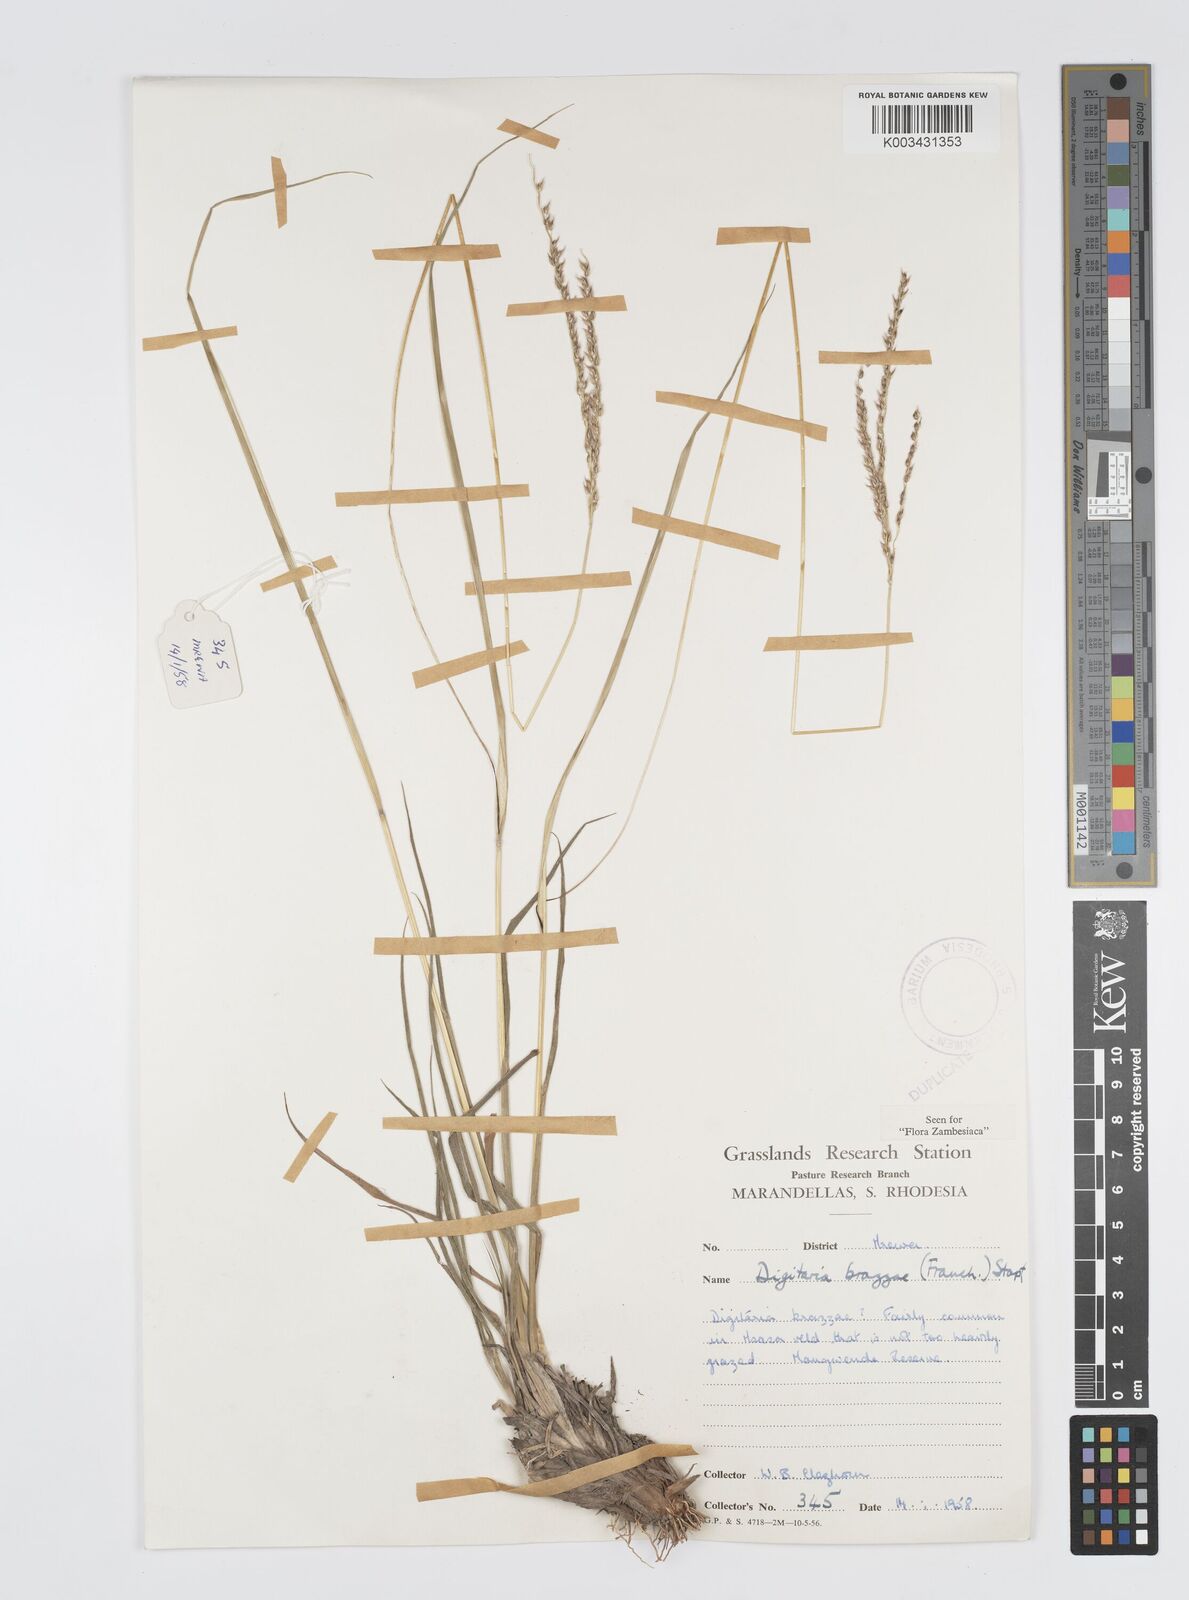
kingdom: Plantae
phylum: Tracheophyta
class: Liliopsida
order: Poales
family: Poaceae
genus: Digitaria
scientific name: Digitaria brazzae
